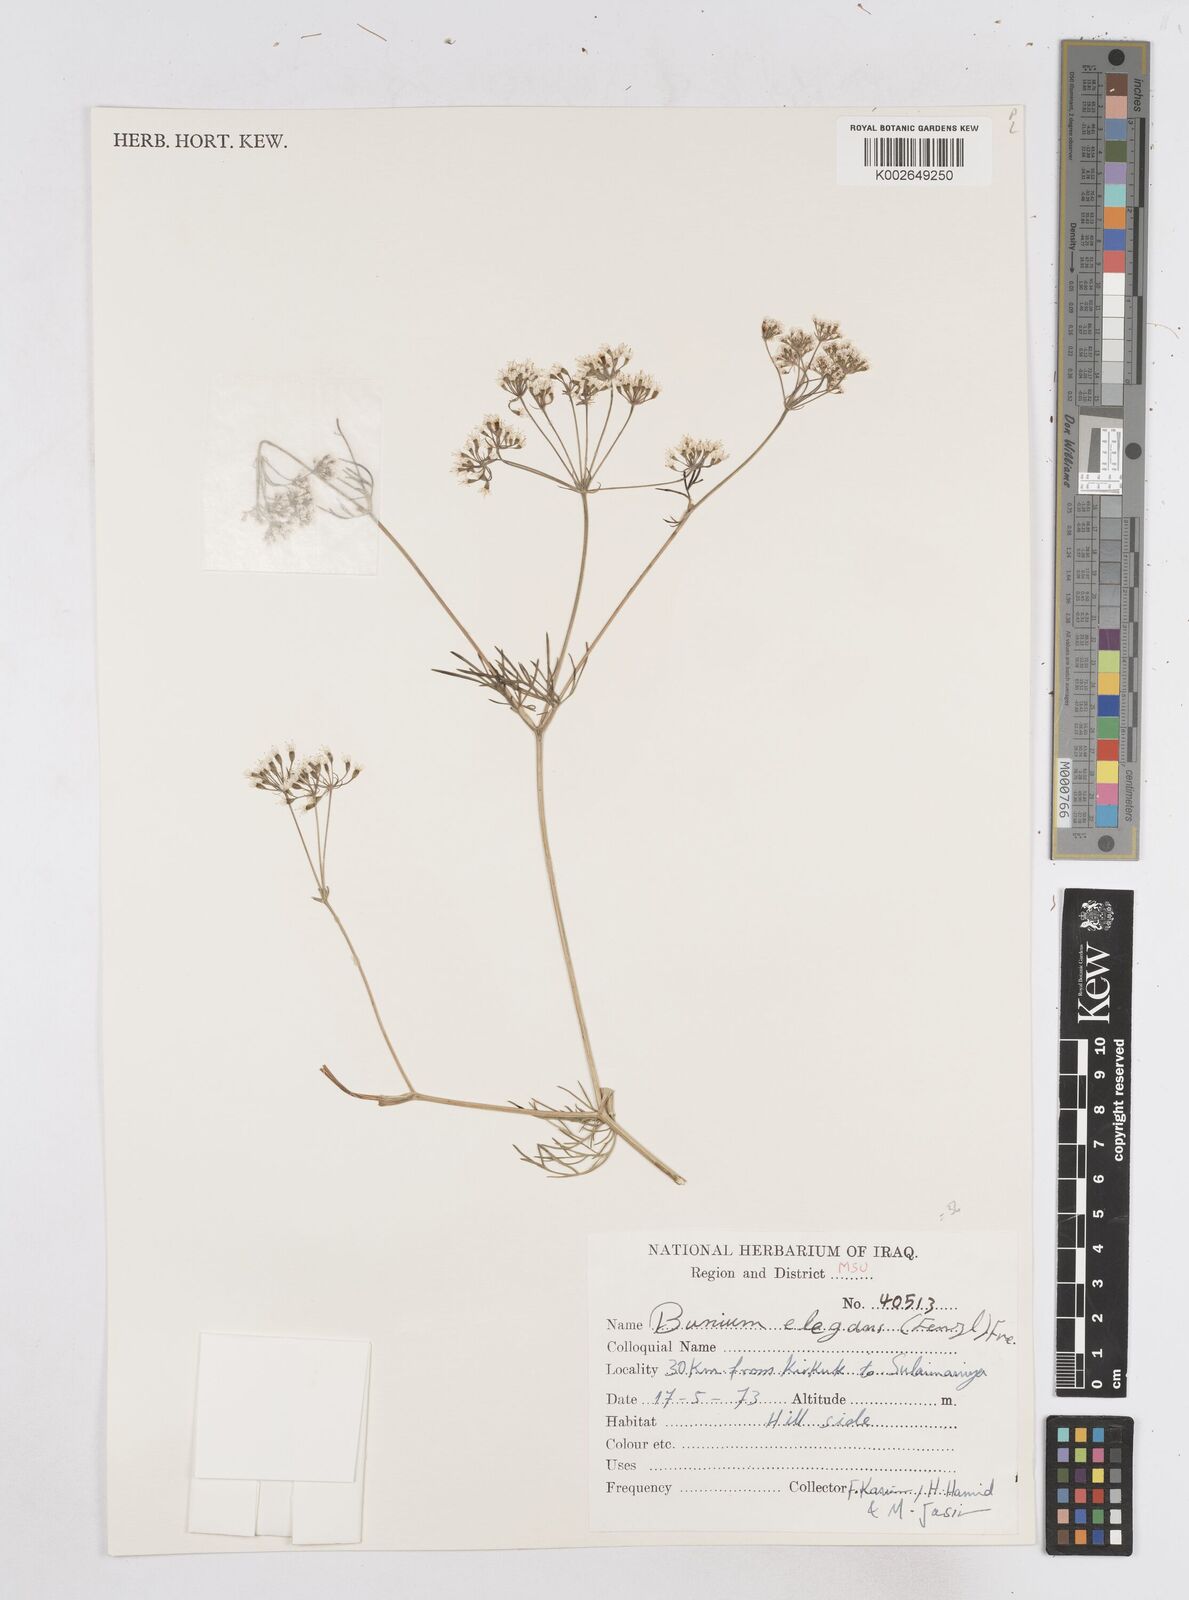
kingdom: Plantae
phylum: Tracheophyta
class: Magnoliopsida
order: Apiales
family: Apiaceae
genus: Bunium
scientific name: Bunium paucifolium
